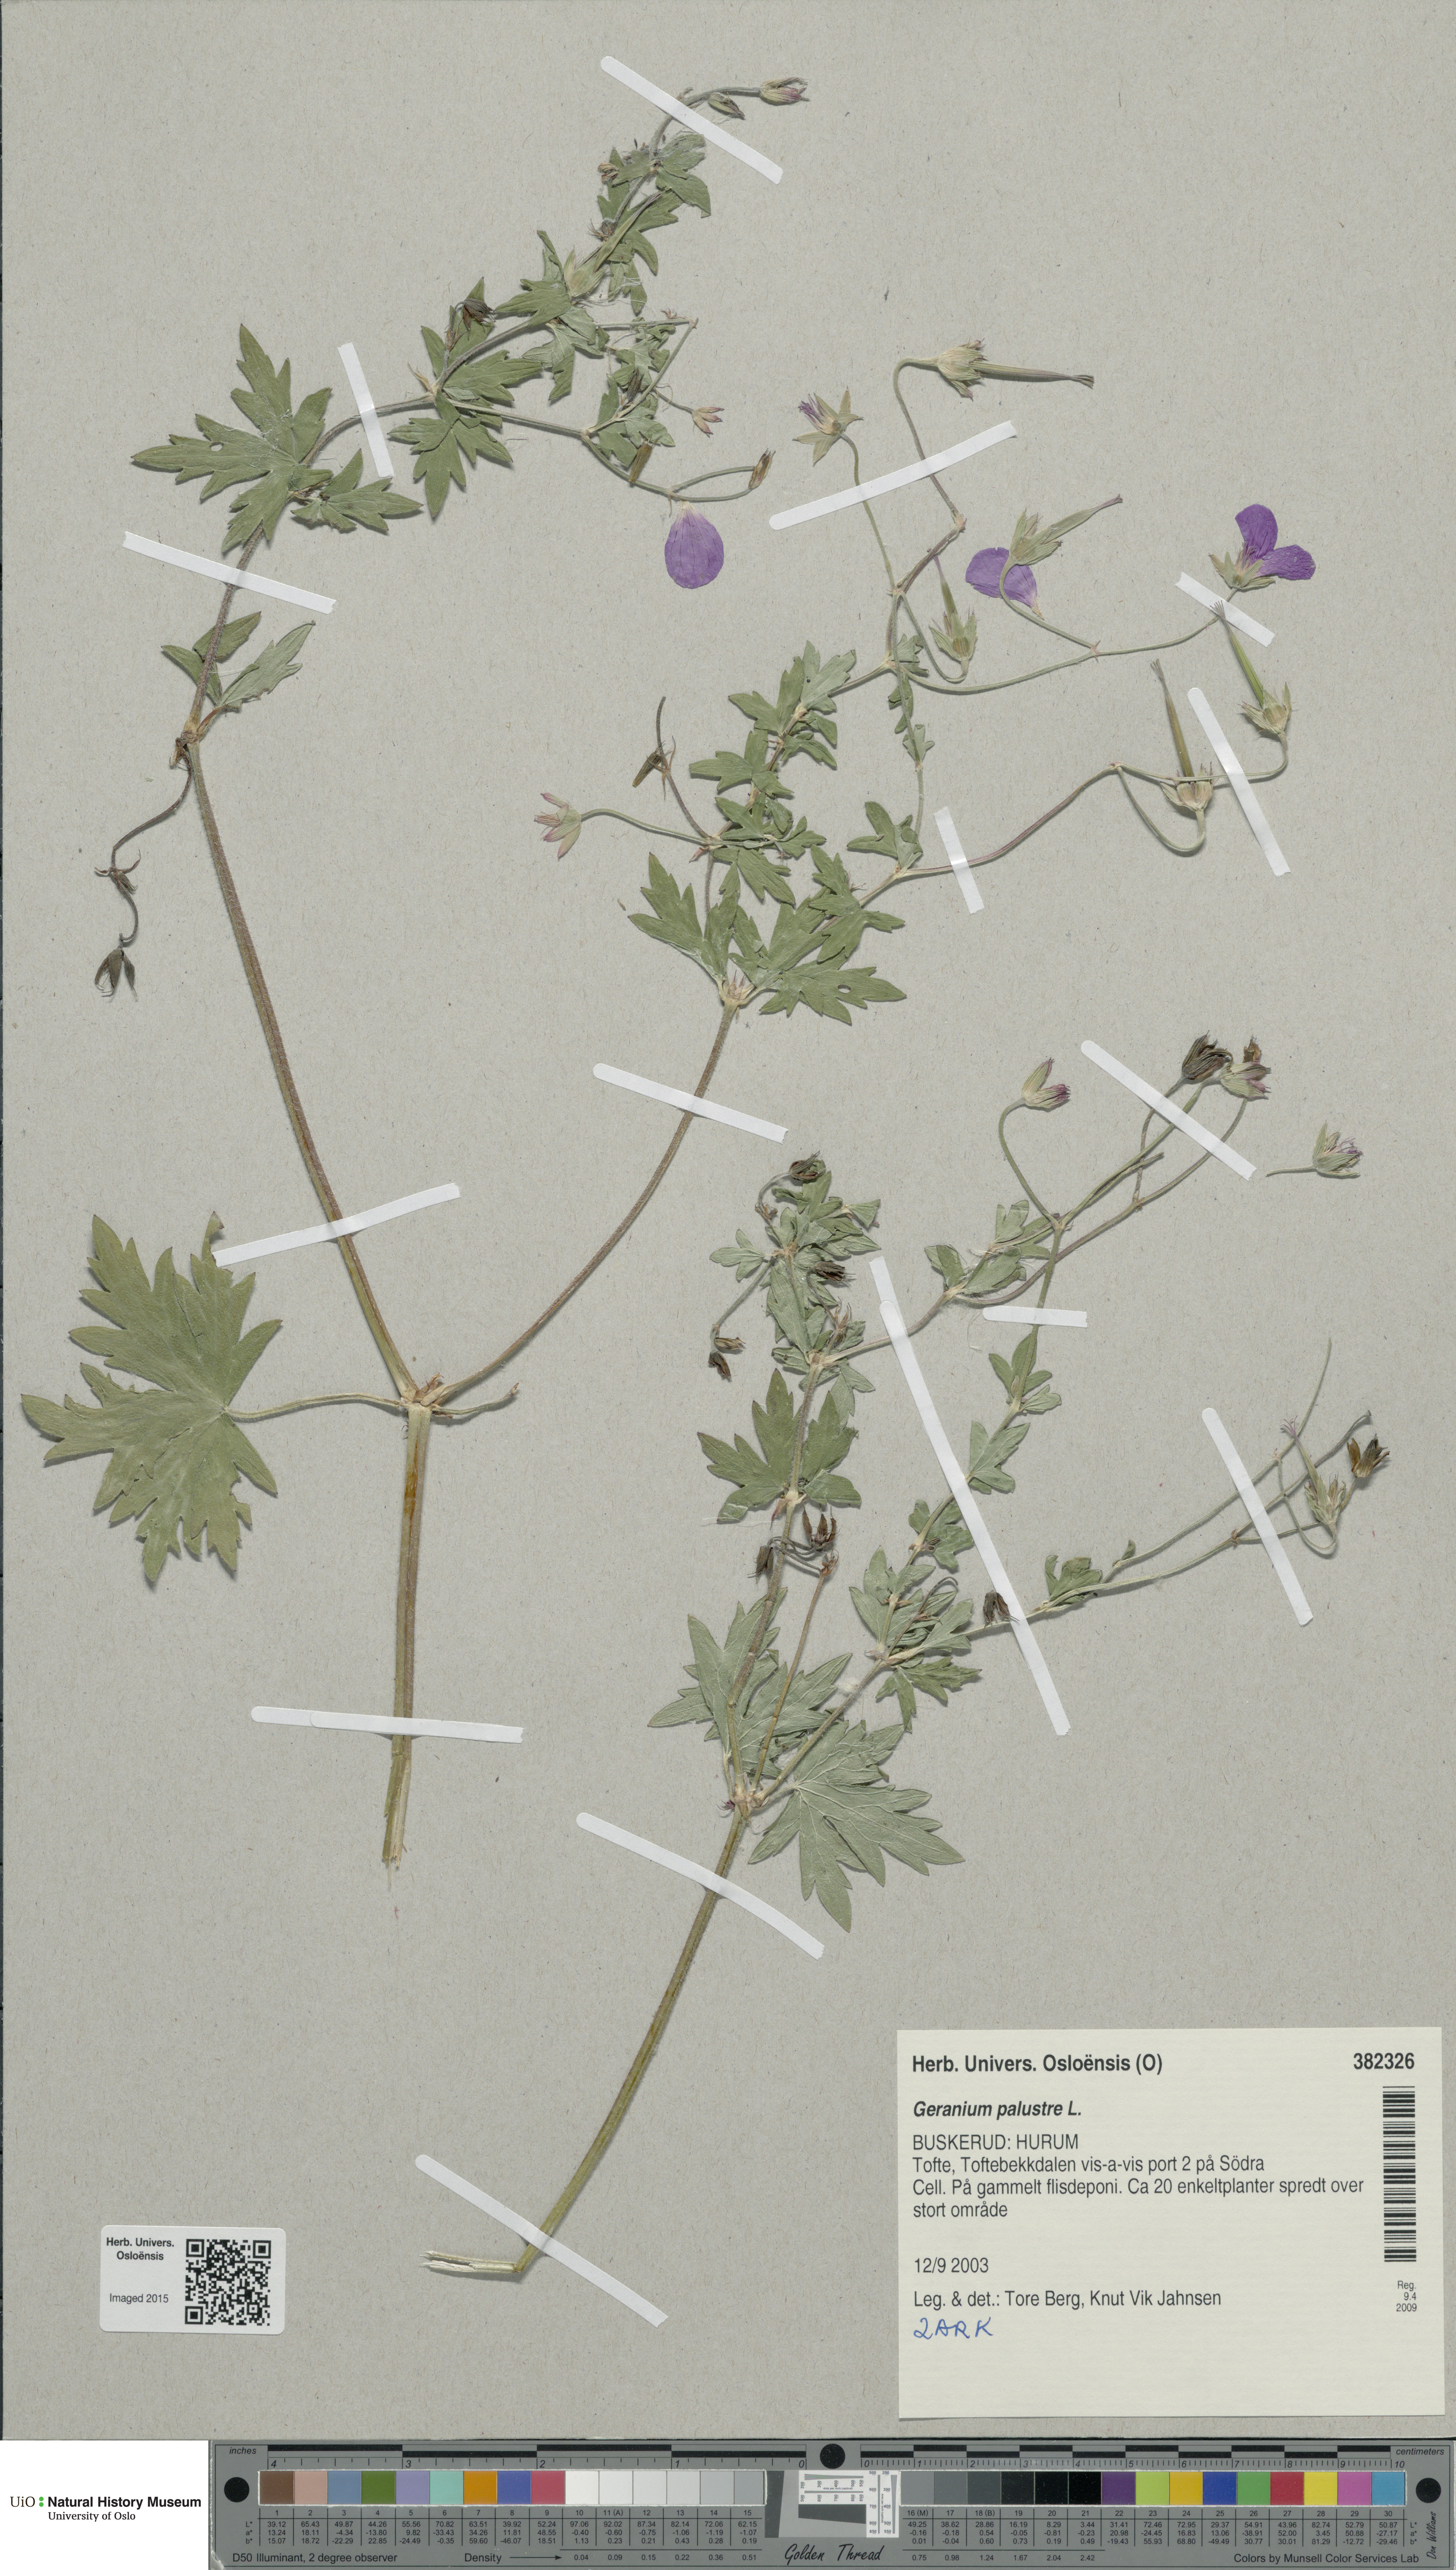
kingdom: Plantae
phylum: Tracheophyta
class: Magnoliopsida
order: Geraniales
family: Geraniaceae
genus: Geranium
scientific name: Geranium palustre
